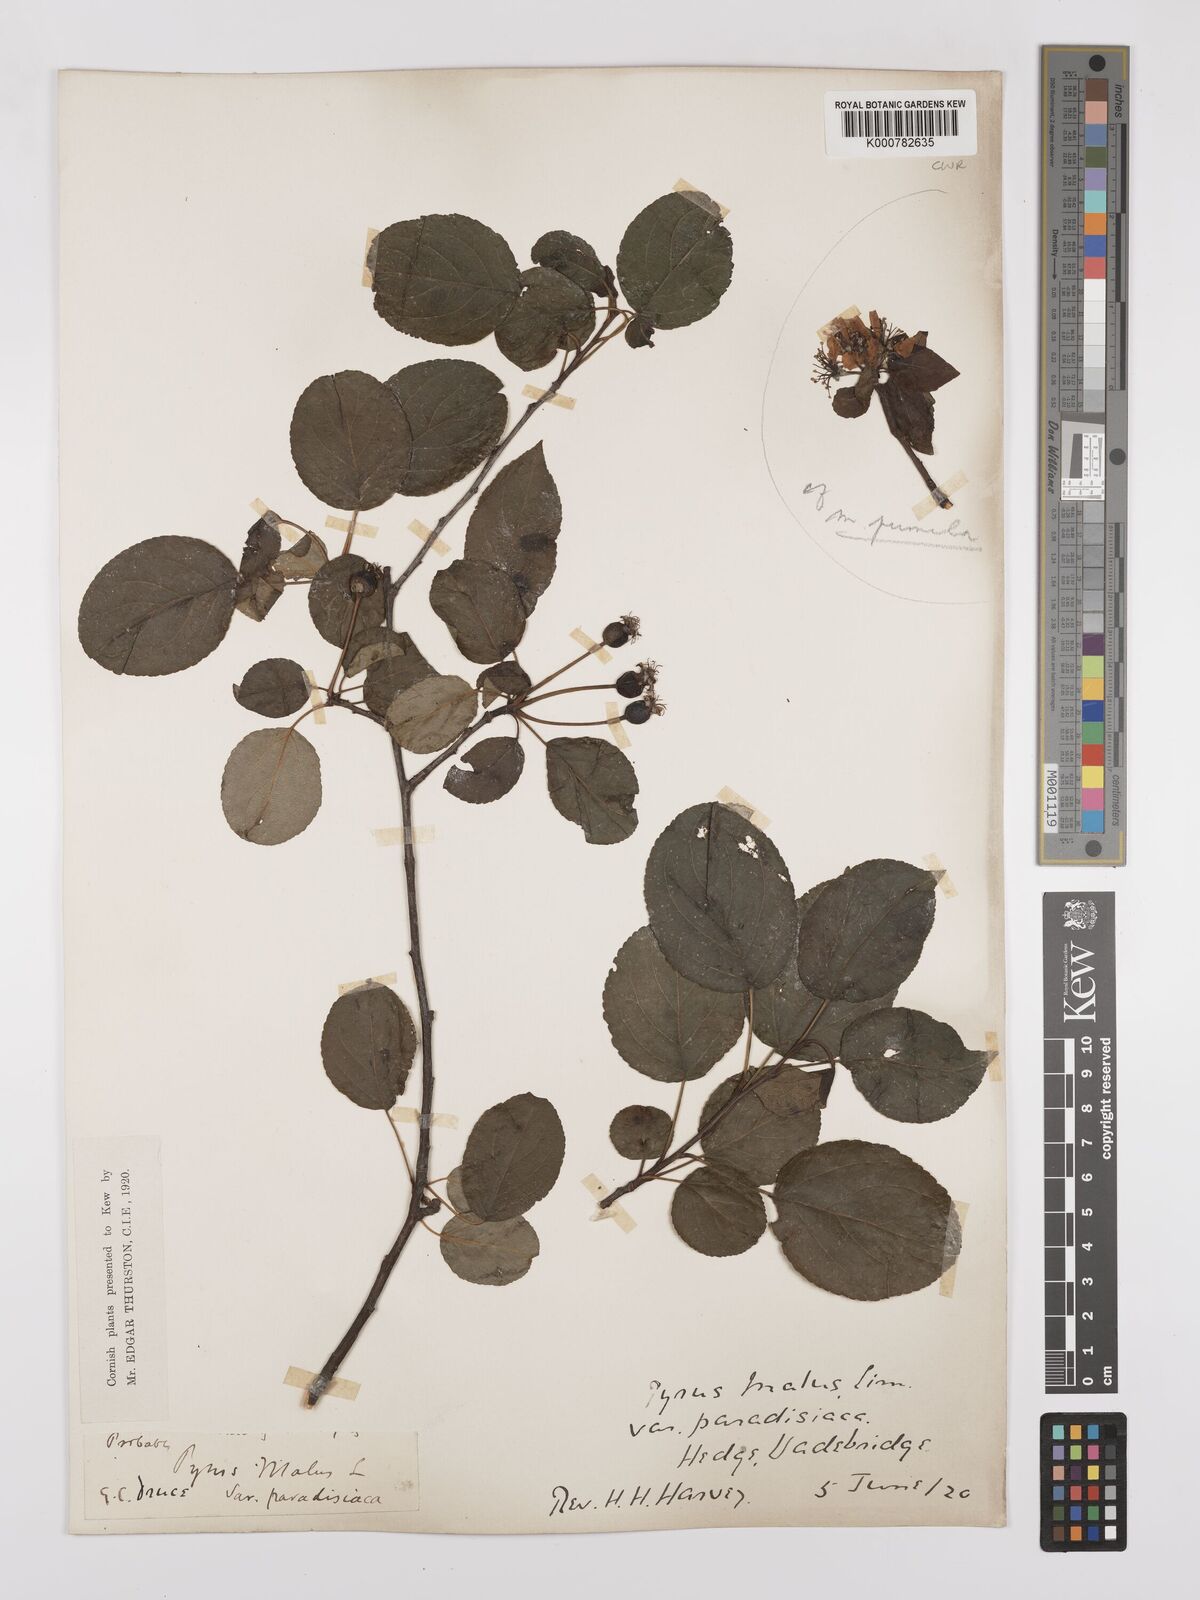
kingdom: Plantae
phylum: Tracheophyta
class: Magnoliopsida
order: Rosales
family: Rosaceae
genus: Malus
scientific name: Malus domestica
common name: Apple
